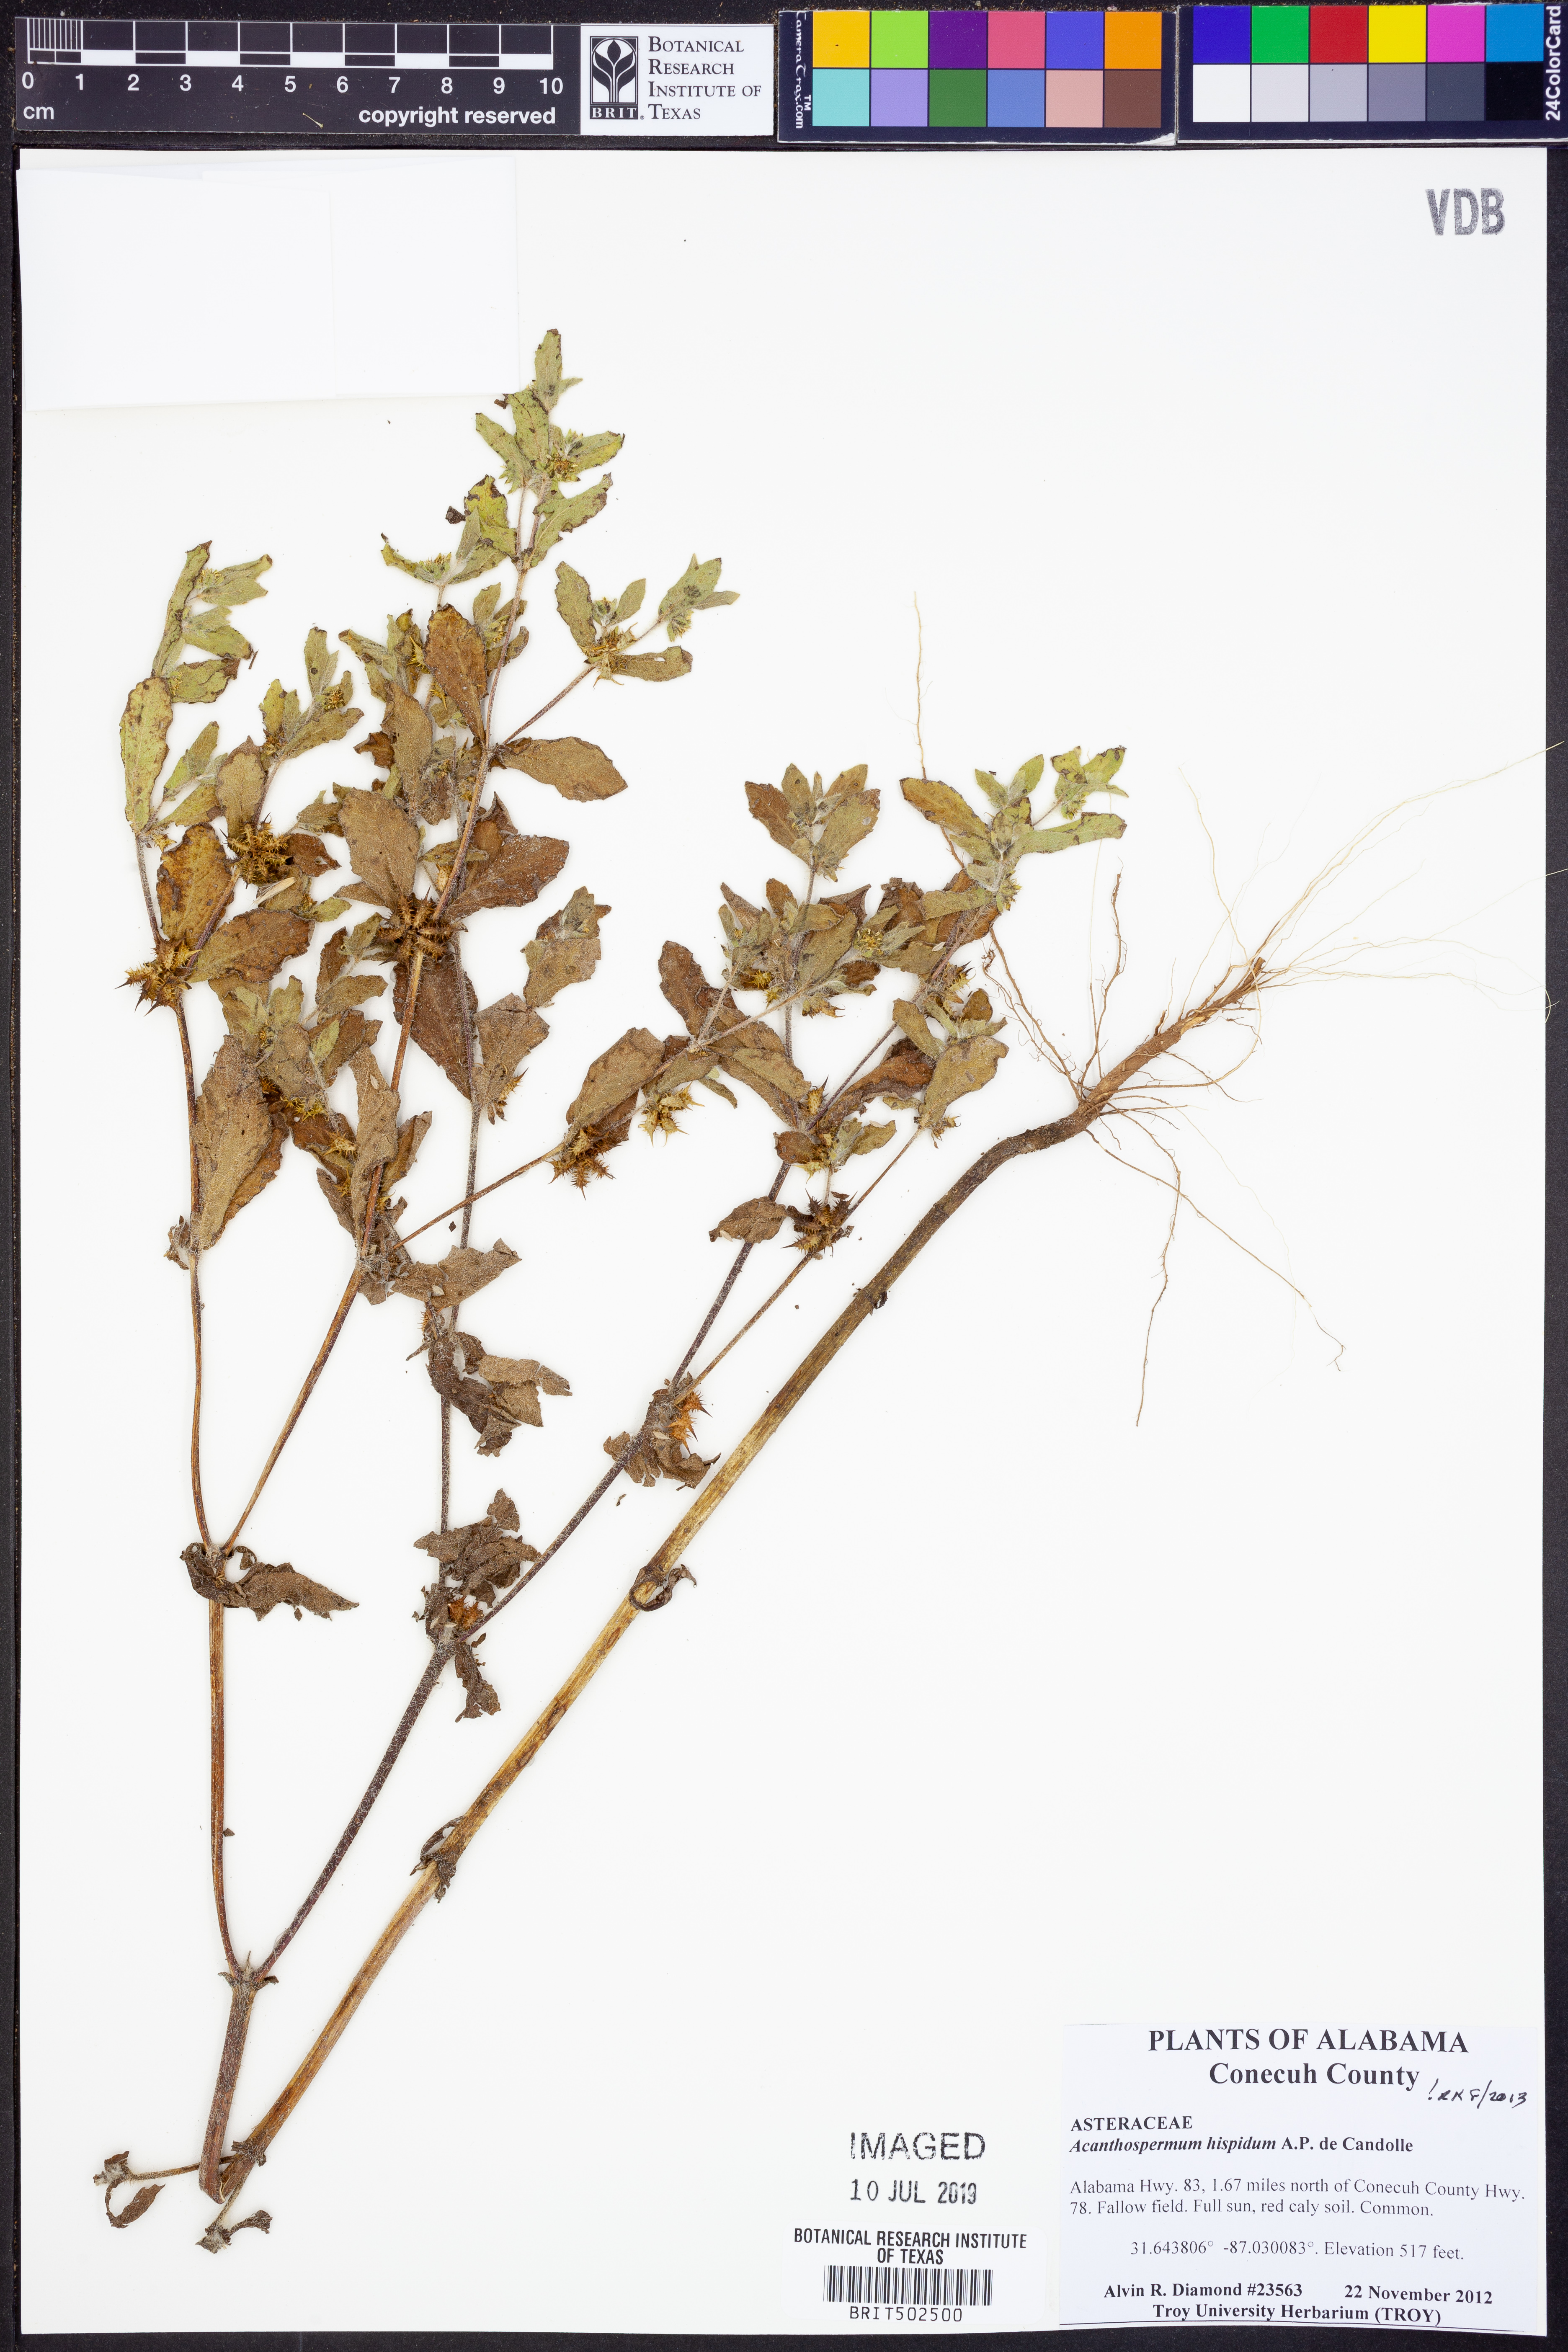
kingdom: Plantae
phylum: Tracheophyta
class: Magnoliopsida
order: Asterales
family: Asteraceae
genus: Acanthospermum
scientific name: Acanthospermum hispidum
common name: Hispid starbur
